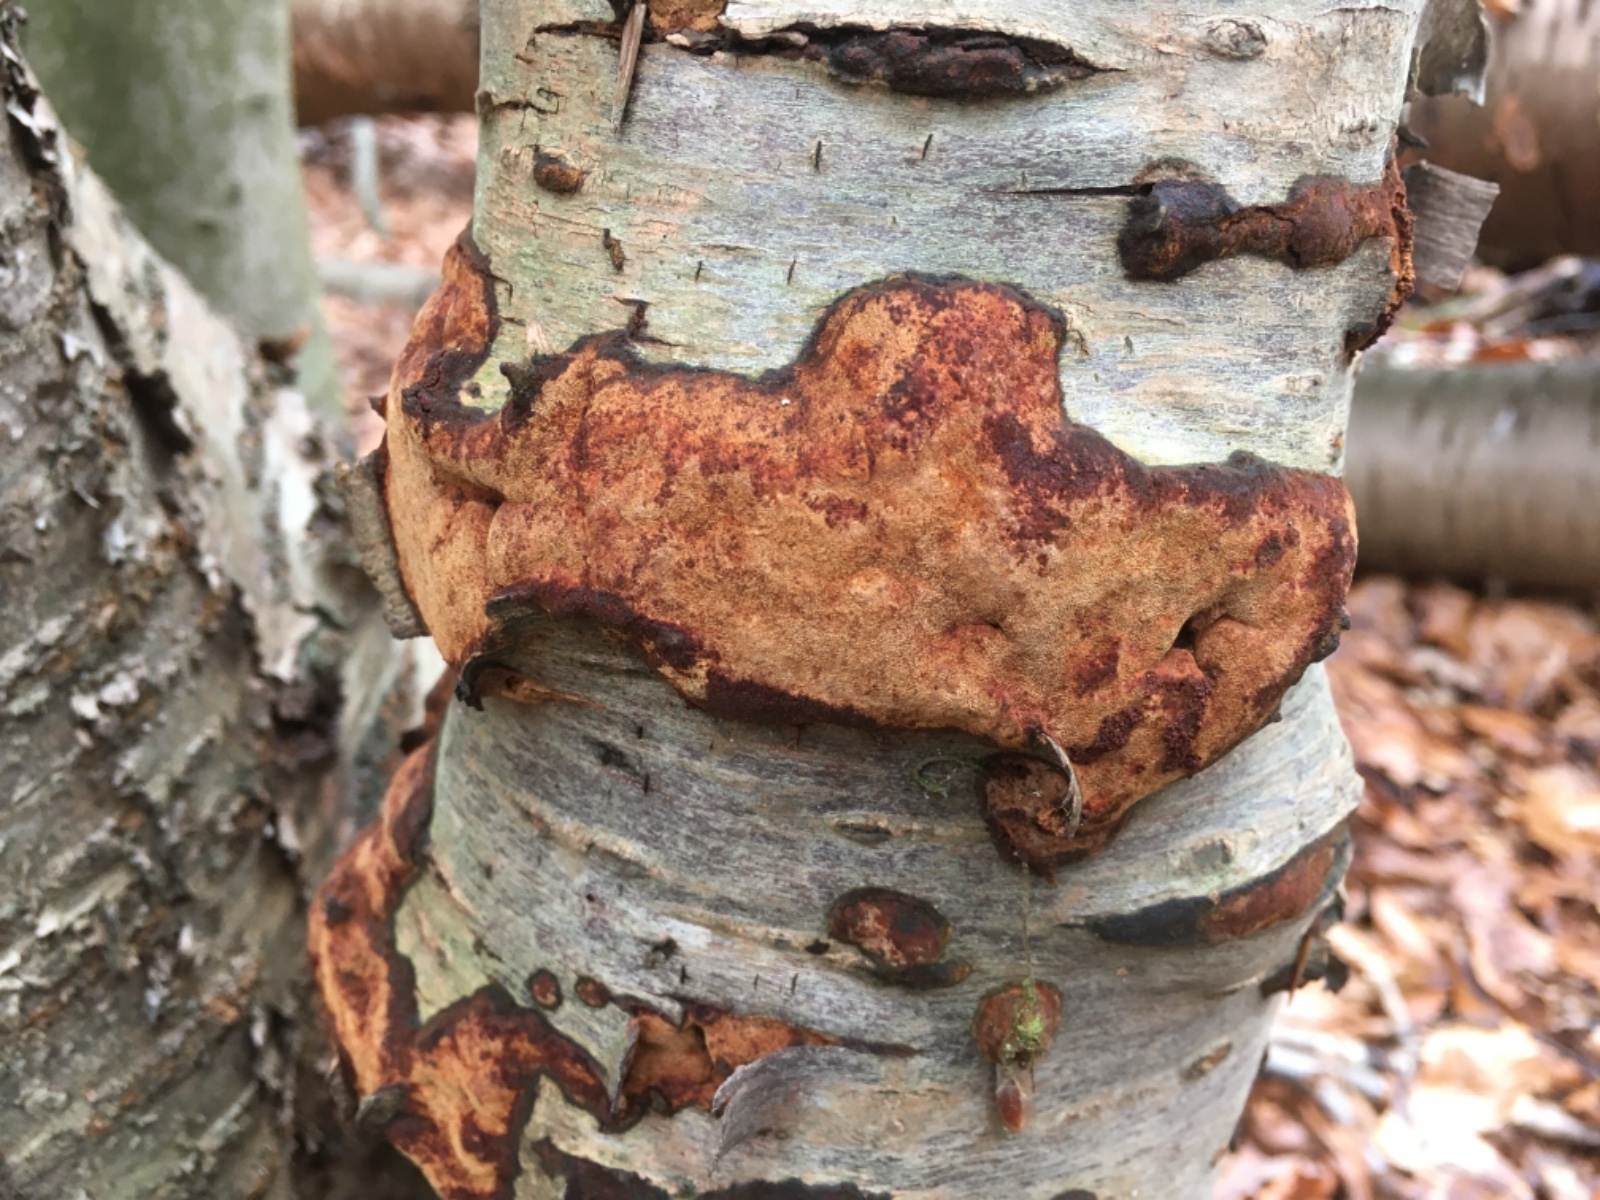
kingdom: Fungi
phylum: Basidiomycota
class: Agaricomycetes
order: Hymenochaetales
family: Hymenochaetaceae
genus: Fuscoporia
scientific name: Fuscoporia ferrea
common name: skorpe-ildporesvamp
